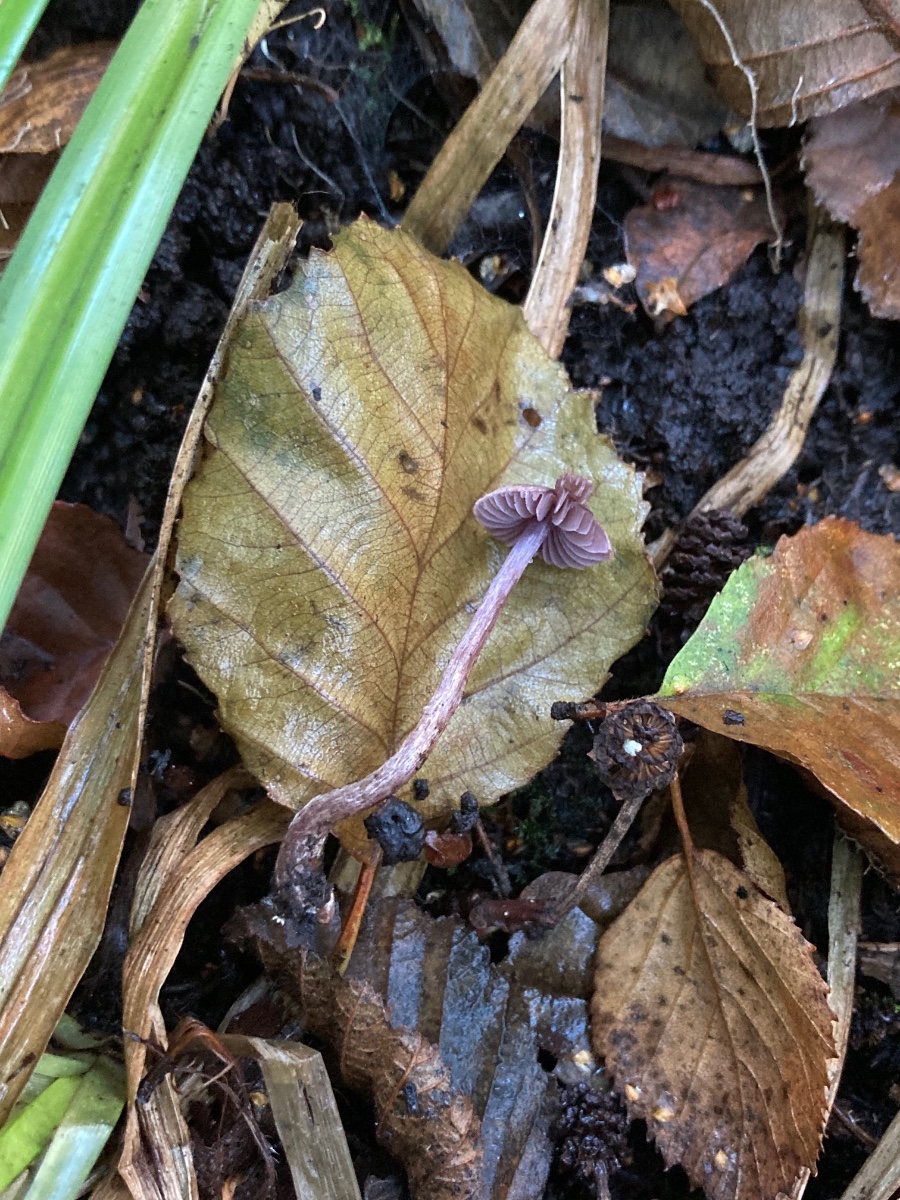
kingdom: Fungi
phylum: Basidiomycota
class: Agaricomycetes
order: Agaricales
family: Cortinariaceae
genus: Cortinarius
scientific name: Cortinarius bibulus
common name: smuk slørhat
